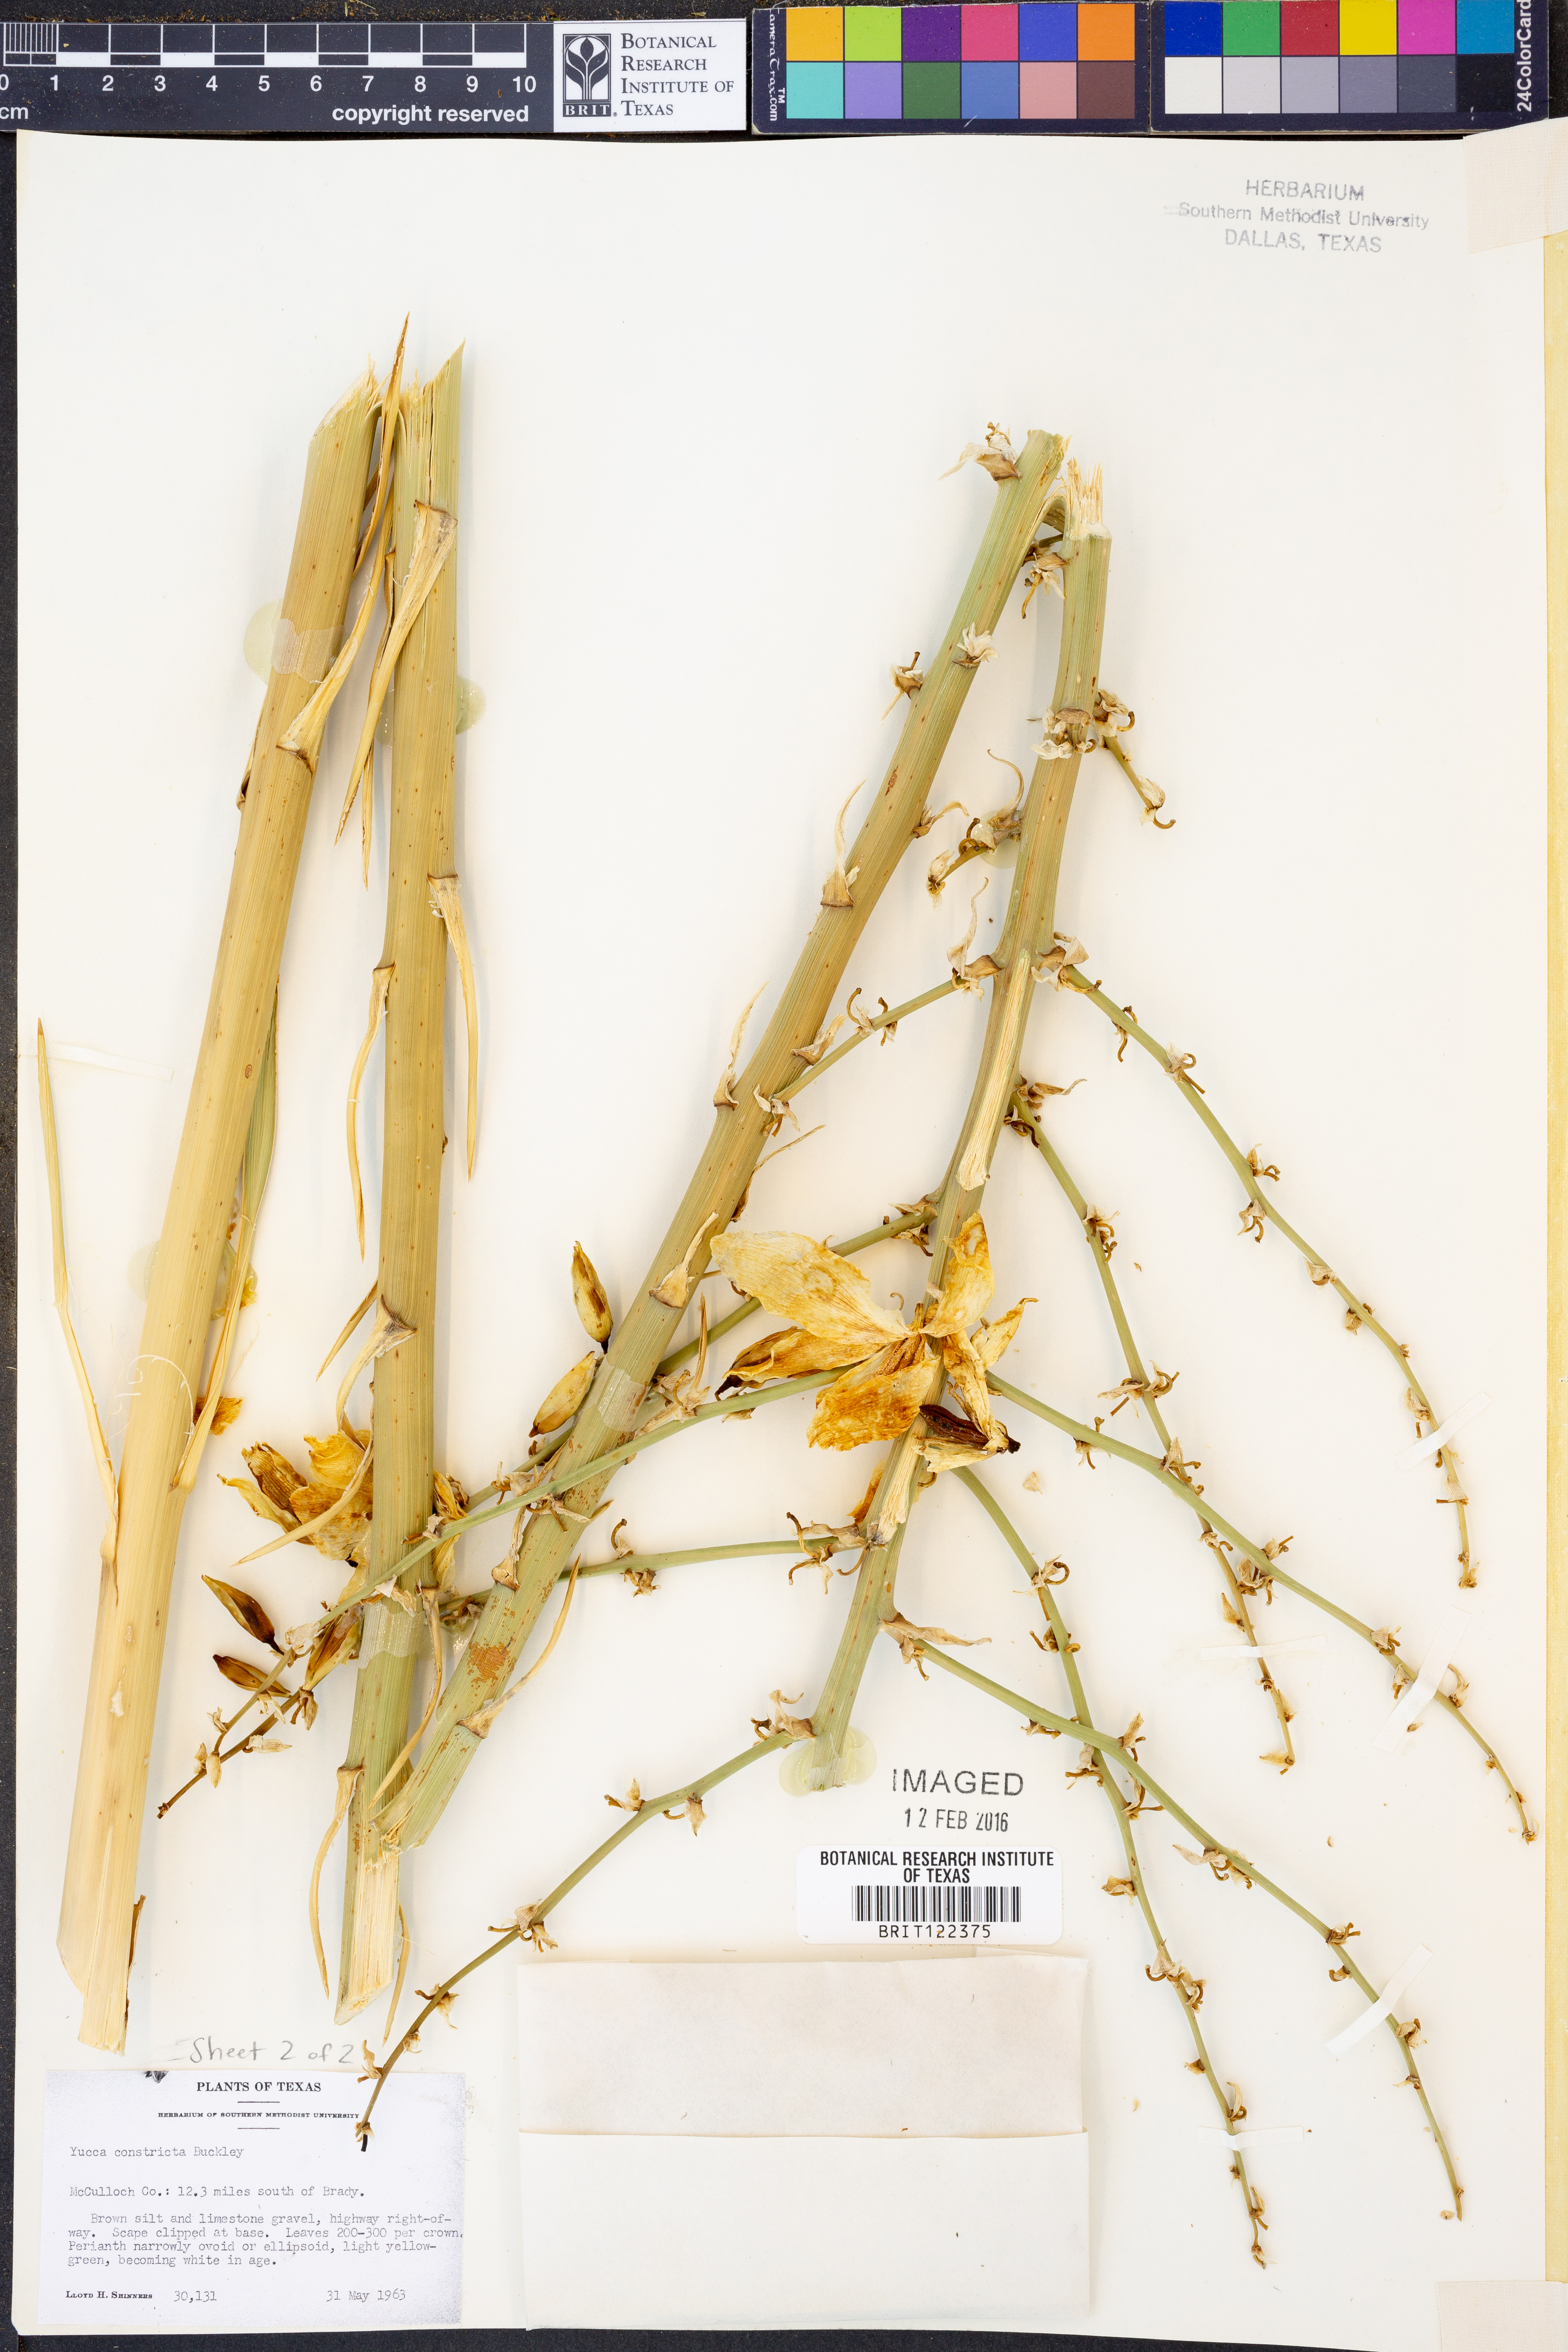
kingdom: Plantae
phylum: Tracheophyta
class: Liliopsida
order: Asparagales
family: Asparagaceae
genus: Yucca
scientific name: Yucca constricta
